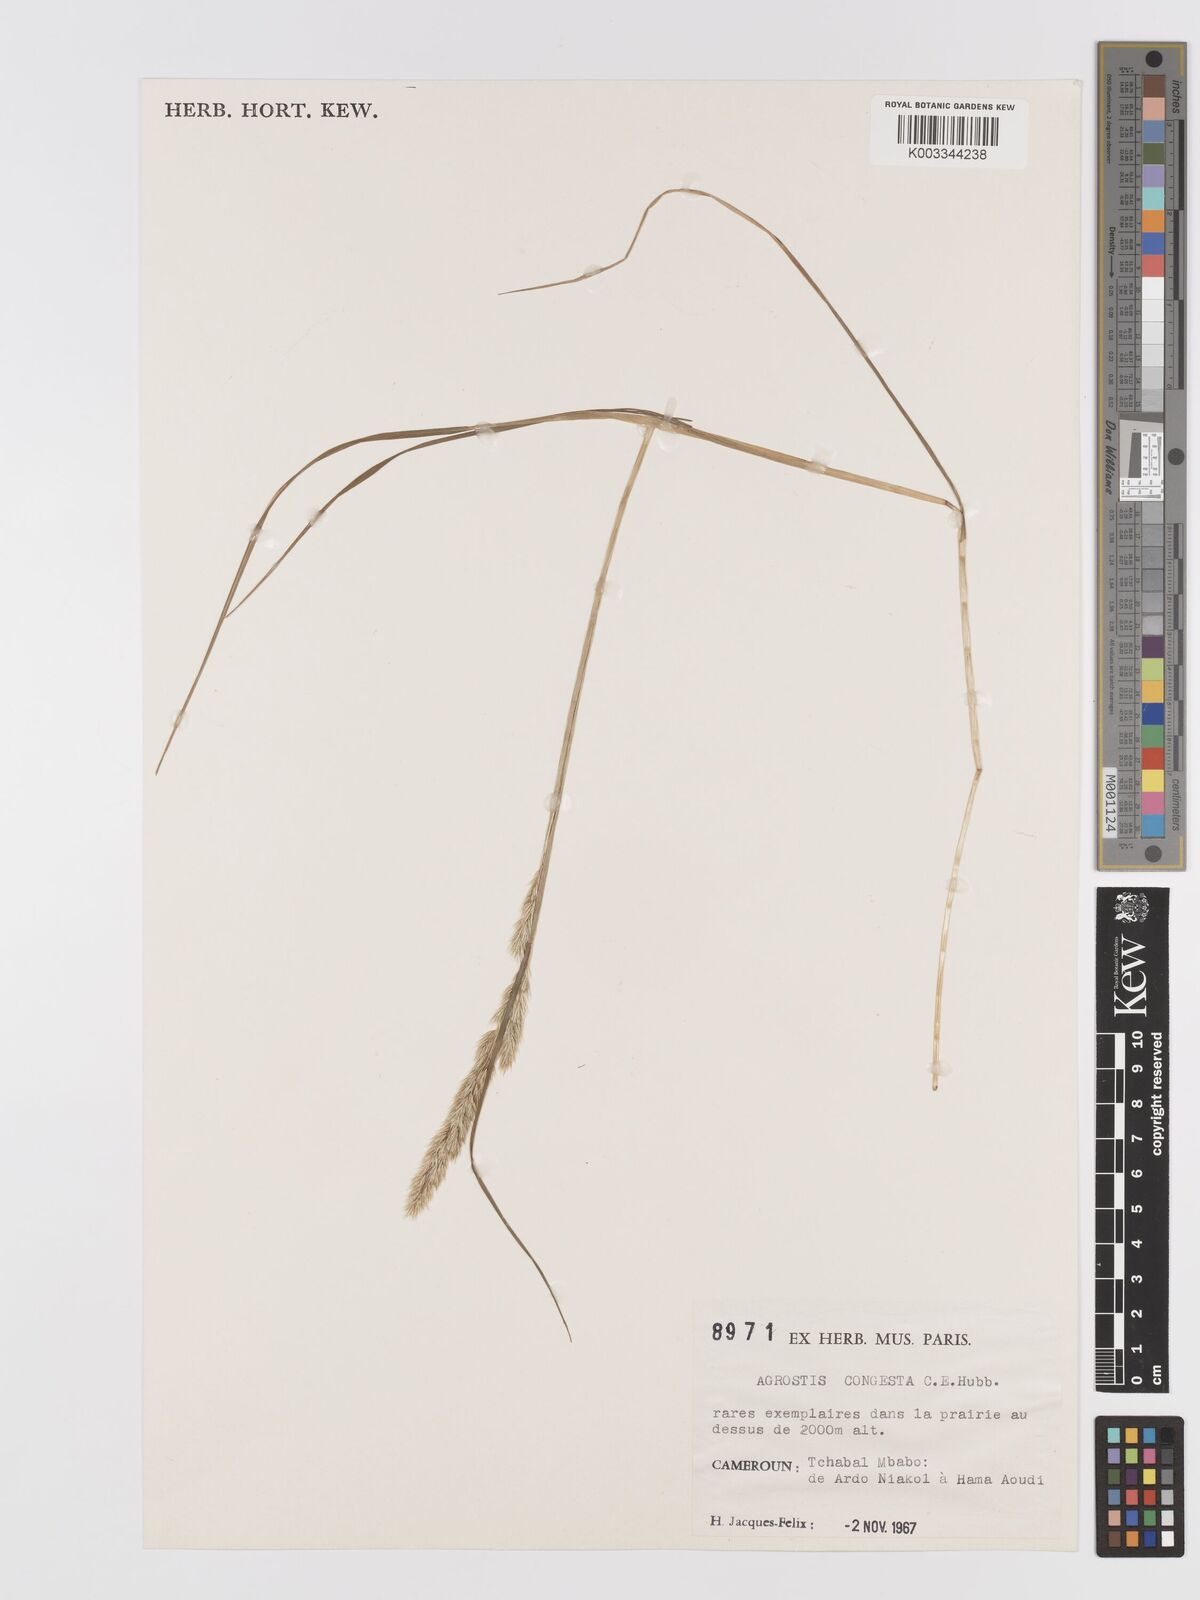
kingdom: Plantae
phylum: Tracheophyta
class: Liliopsida
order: Poales
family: Poaceae
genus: Agrostis
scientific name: Agrostis quinqueseta
